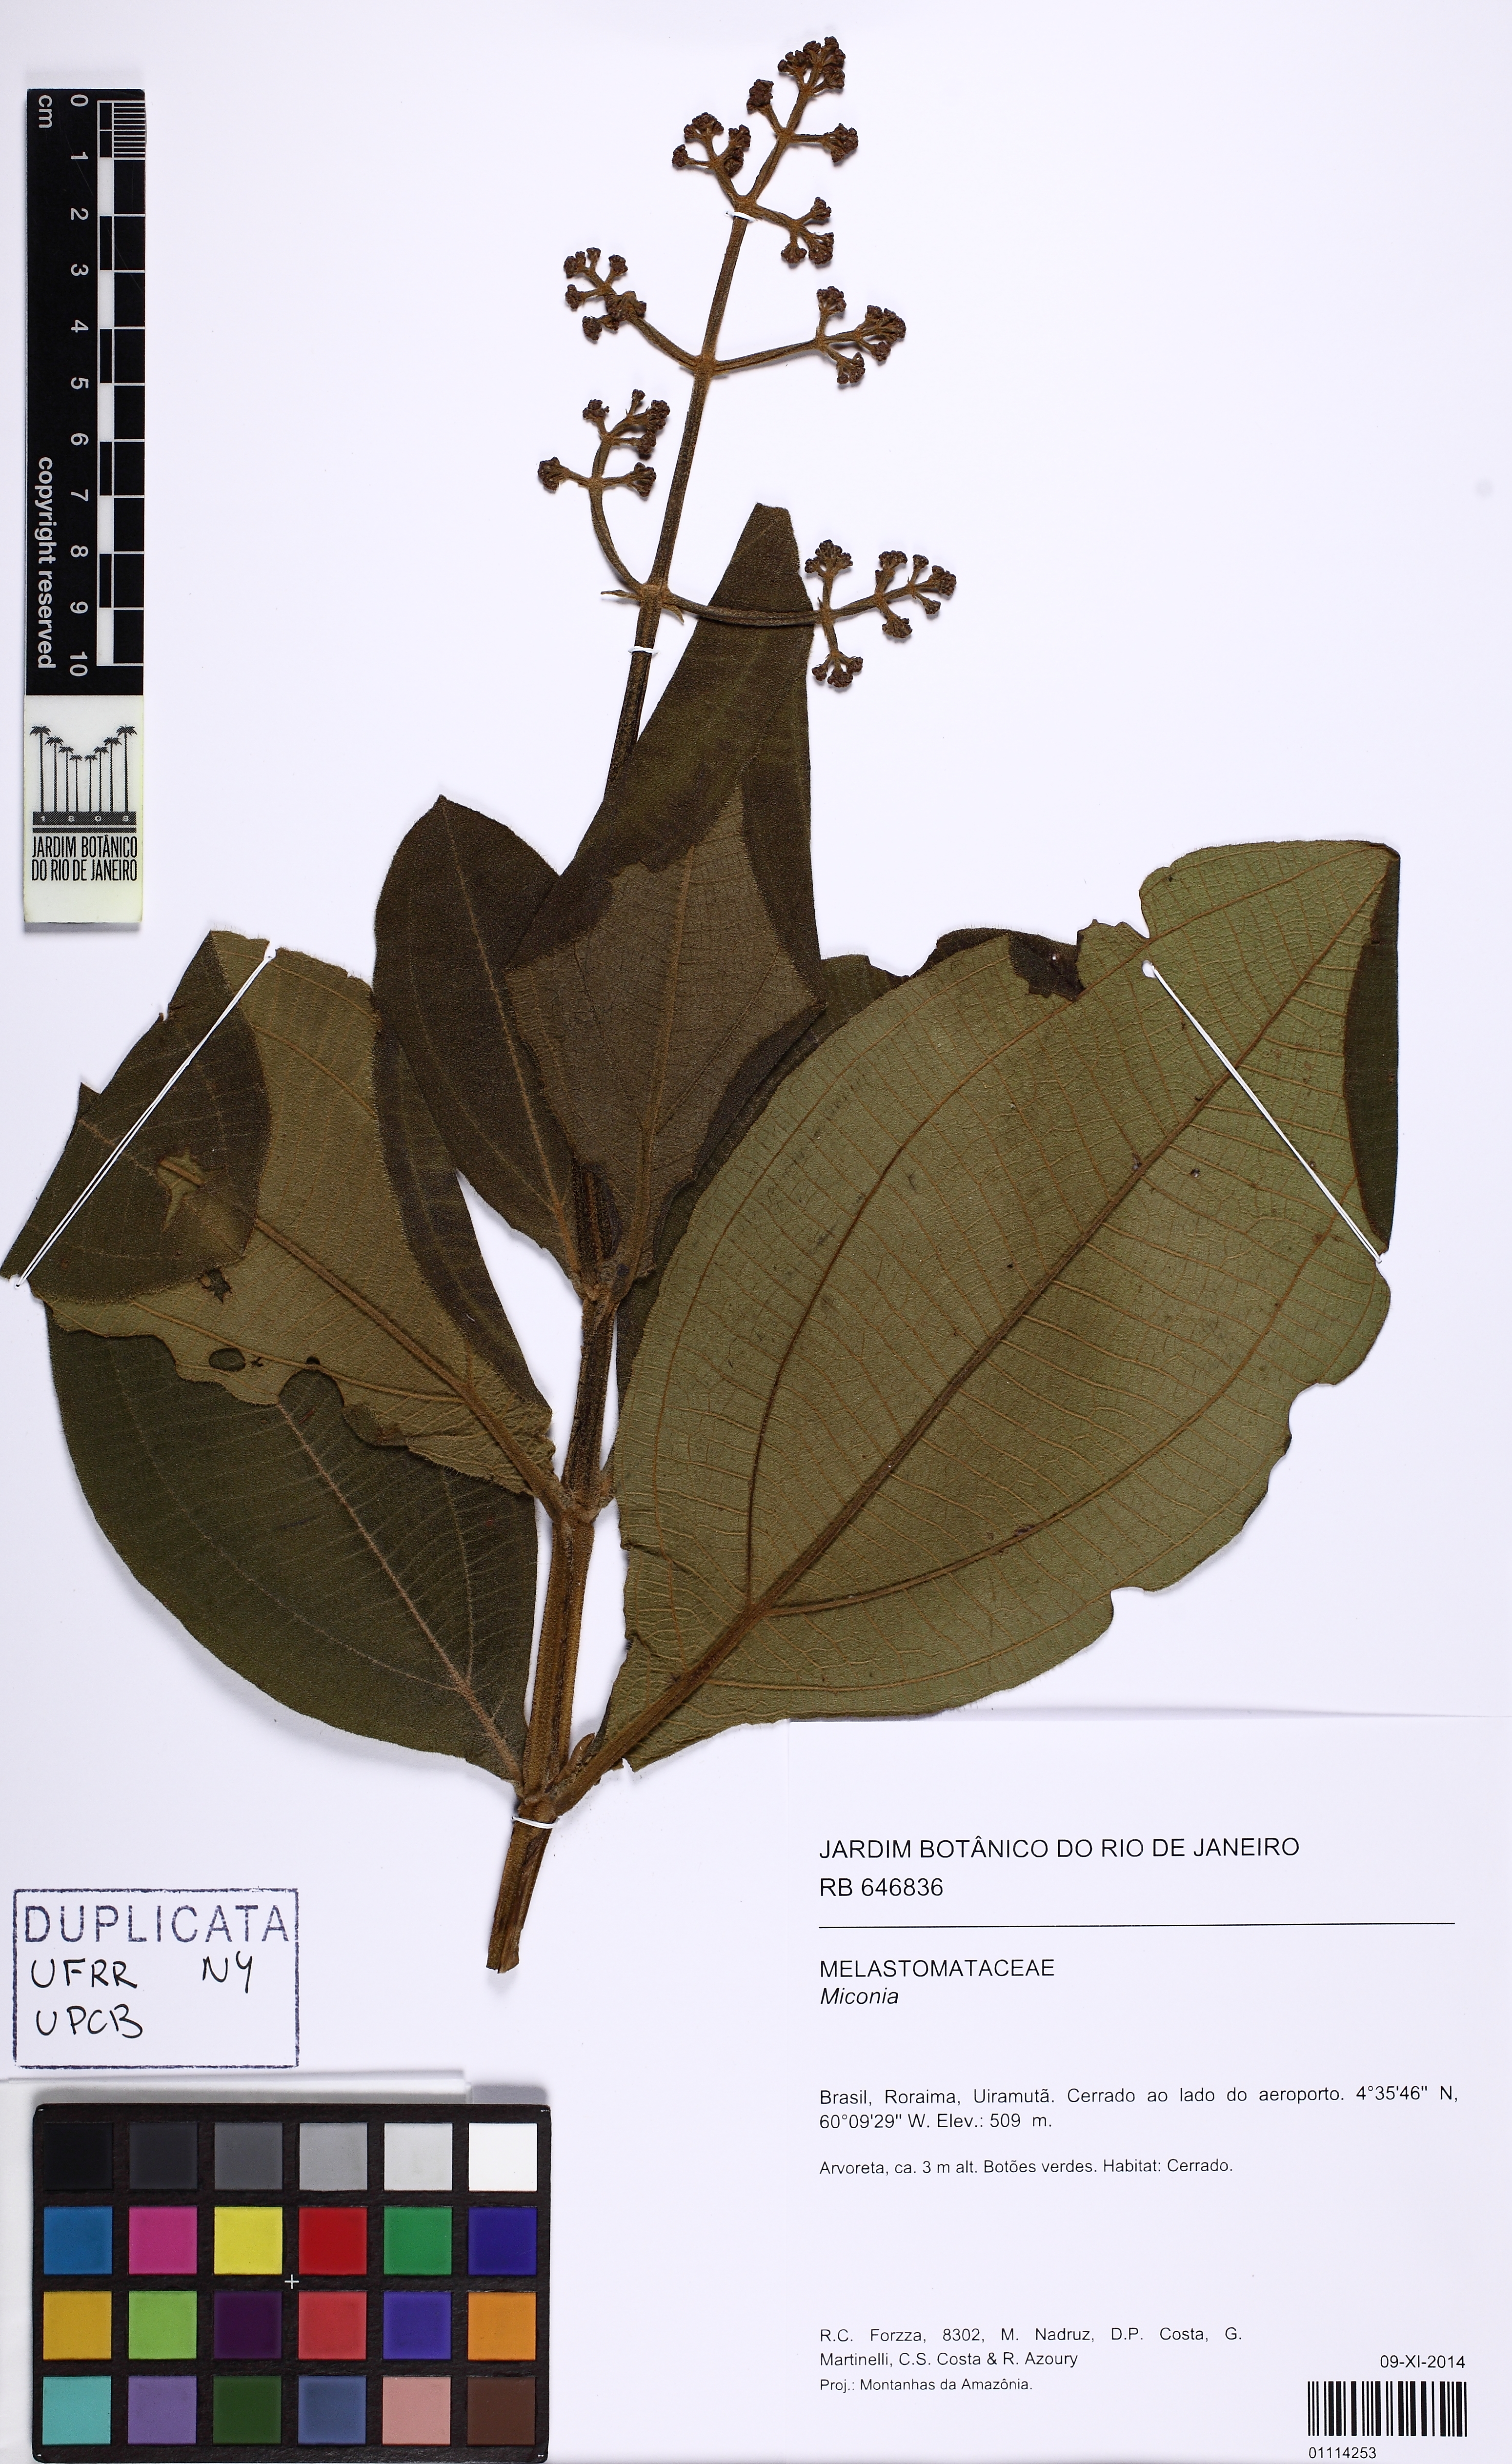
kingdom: Plantae
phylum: Tracheophyta
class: Magnoliopsida
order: Myrtales
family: Melastomataceae
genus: Miconia
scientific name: Miconia alata
